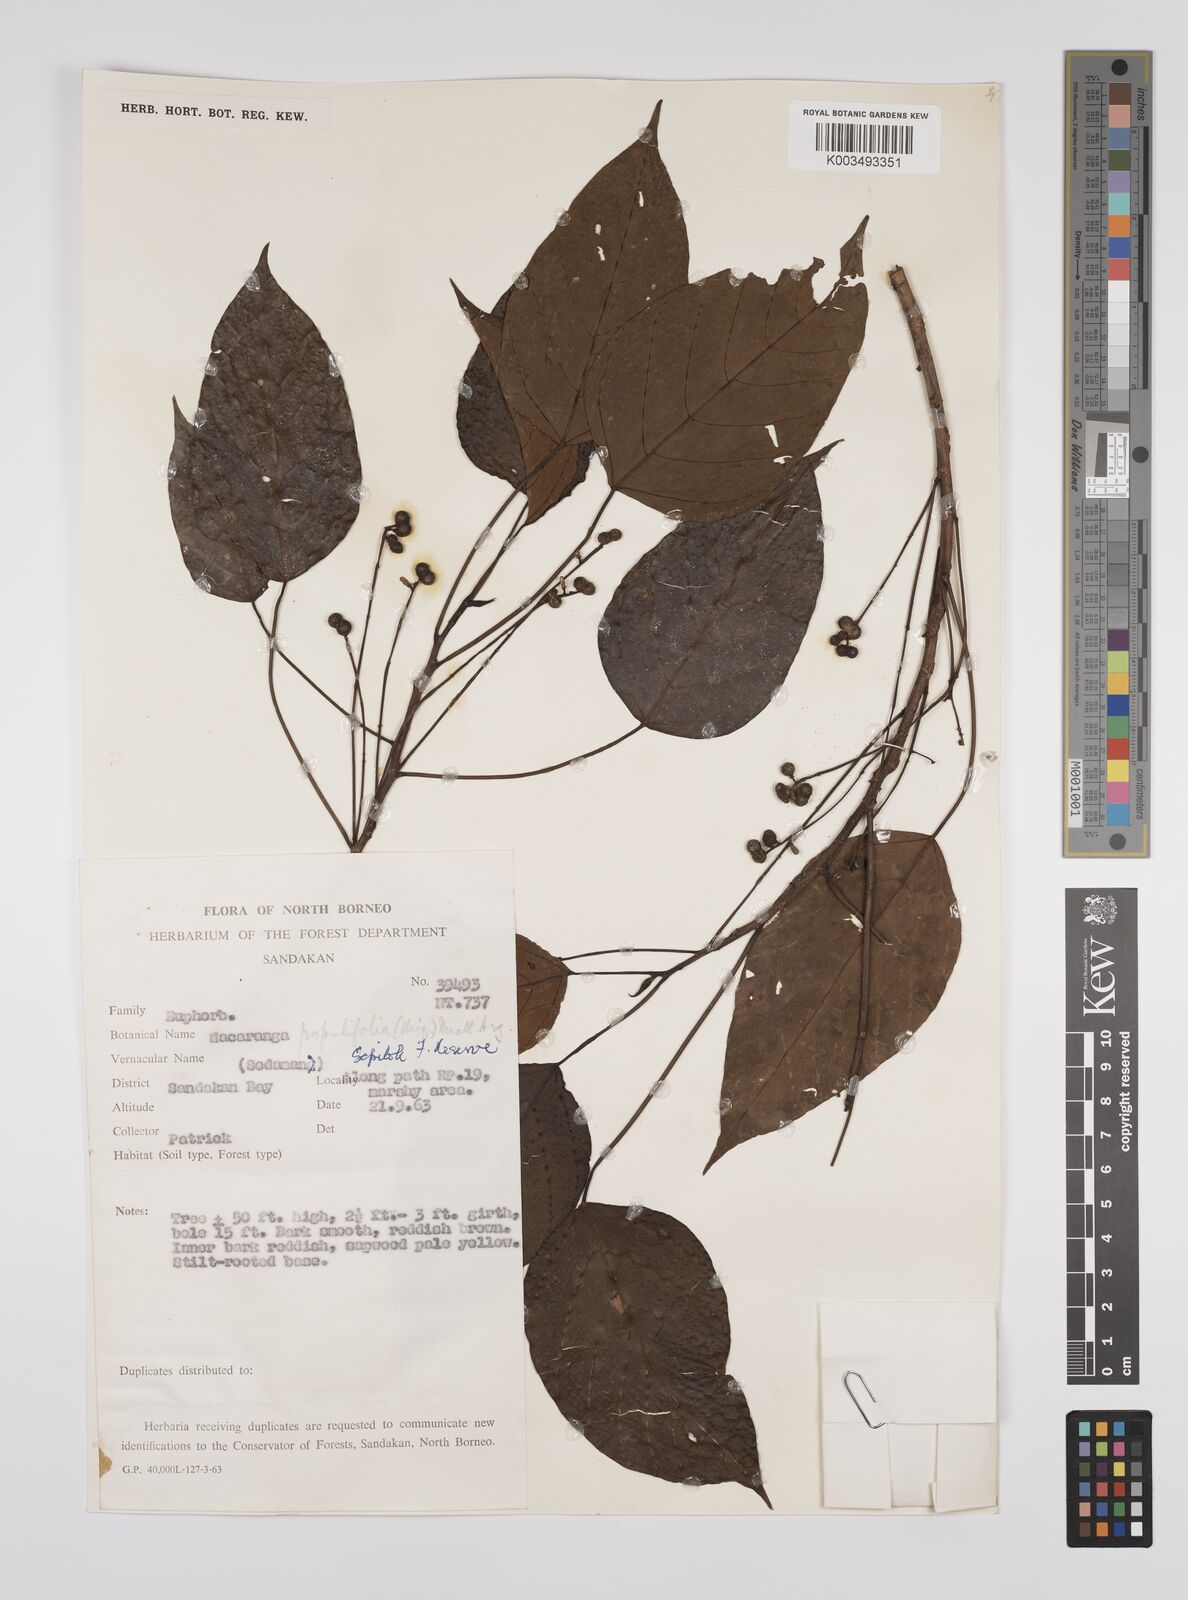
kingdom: Plantae
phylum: Tracheophyta
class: Magnoliopsida
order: Malpighiales
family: Euphorbiaceae
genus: Macaranga
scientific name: Macaranga conifera
